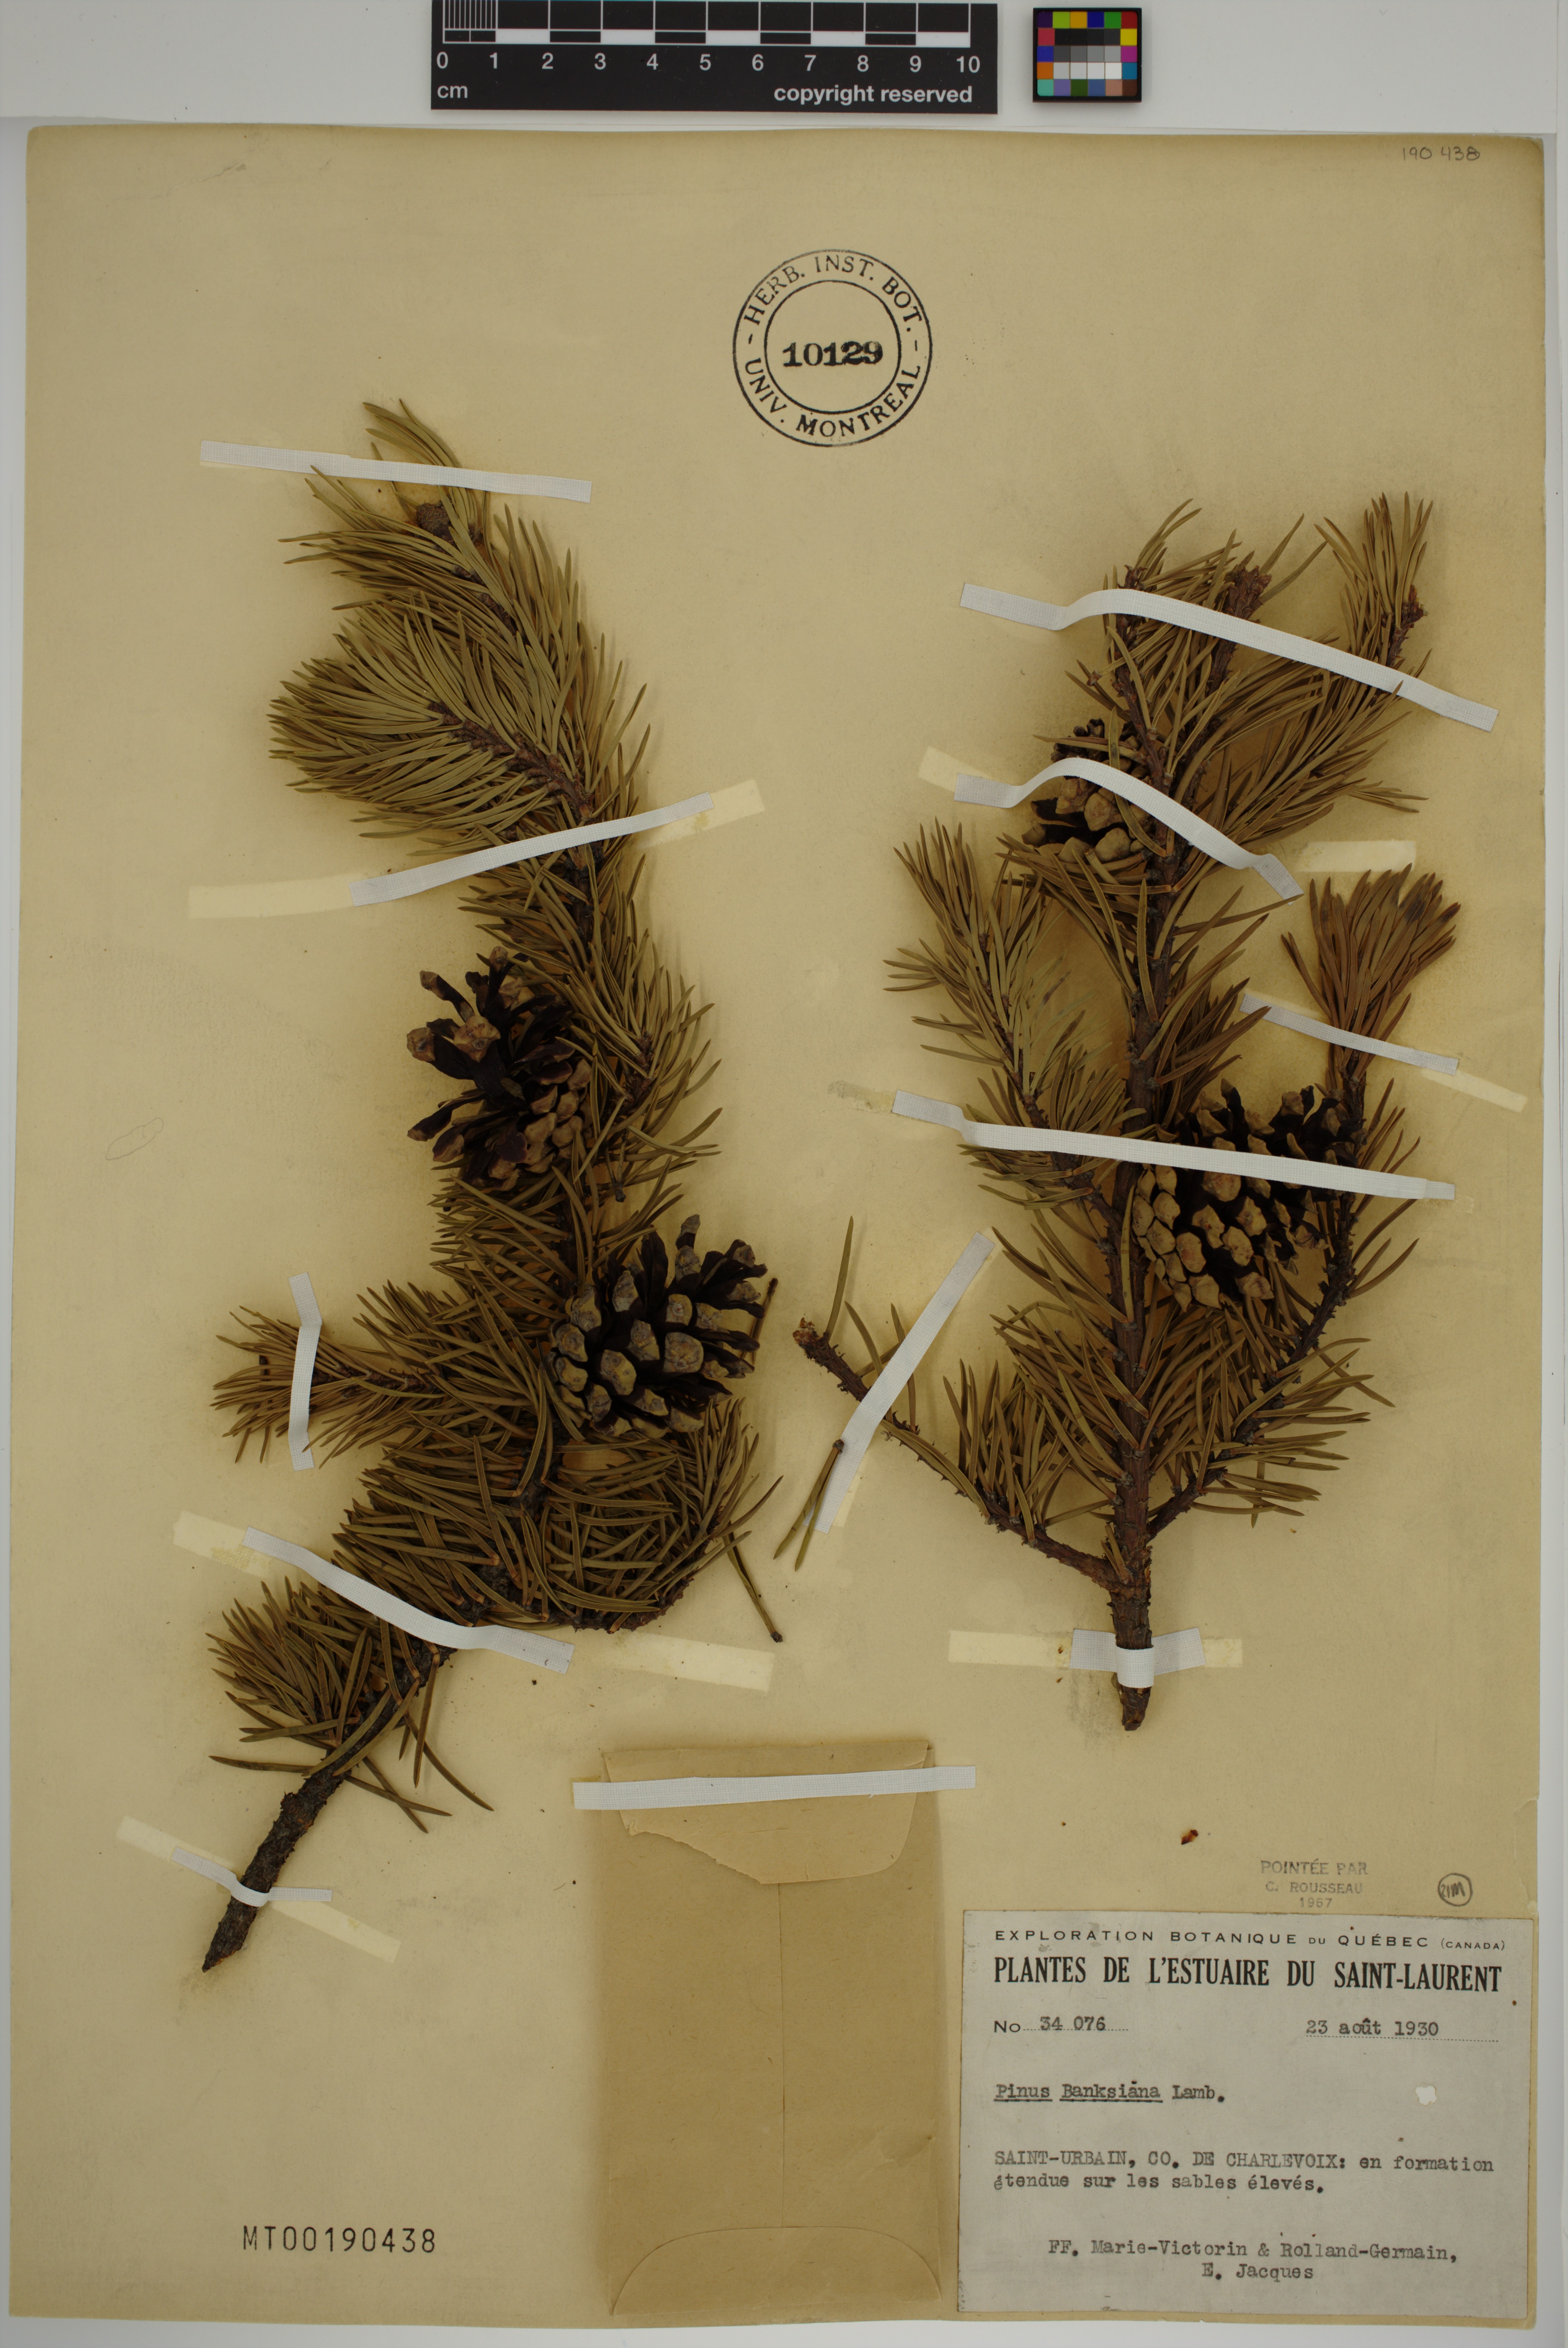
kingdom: Plantae
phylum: Tracheophyta
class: Pinopsida
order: Pinales
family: Pinaceae
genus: Pinus
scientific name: Pinus banksiana
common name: Jack pine
